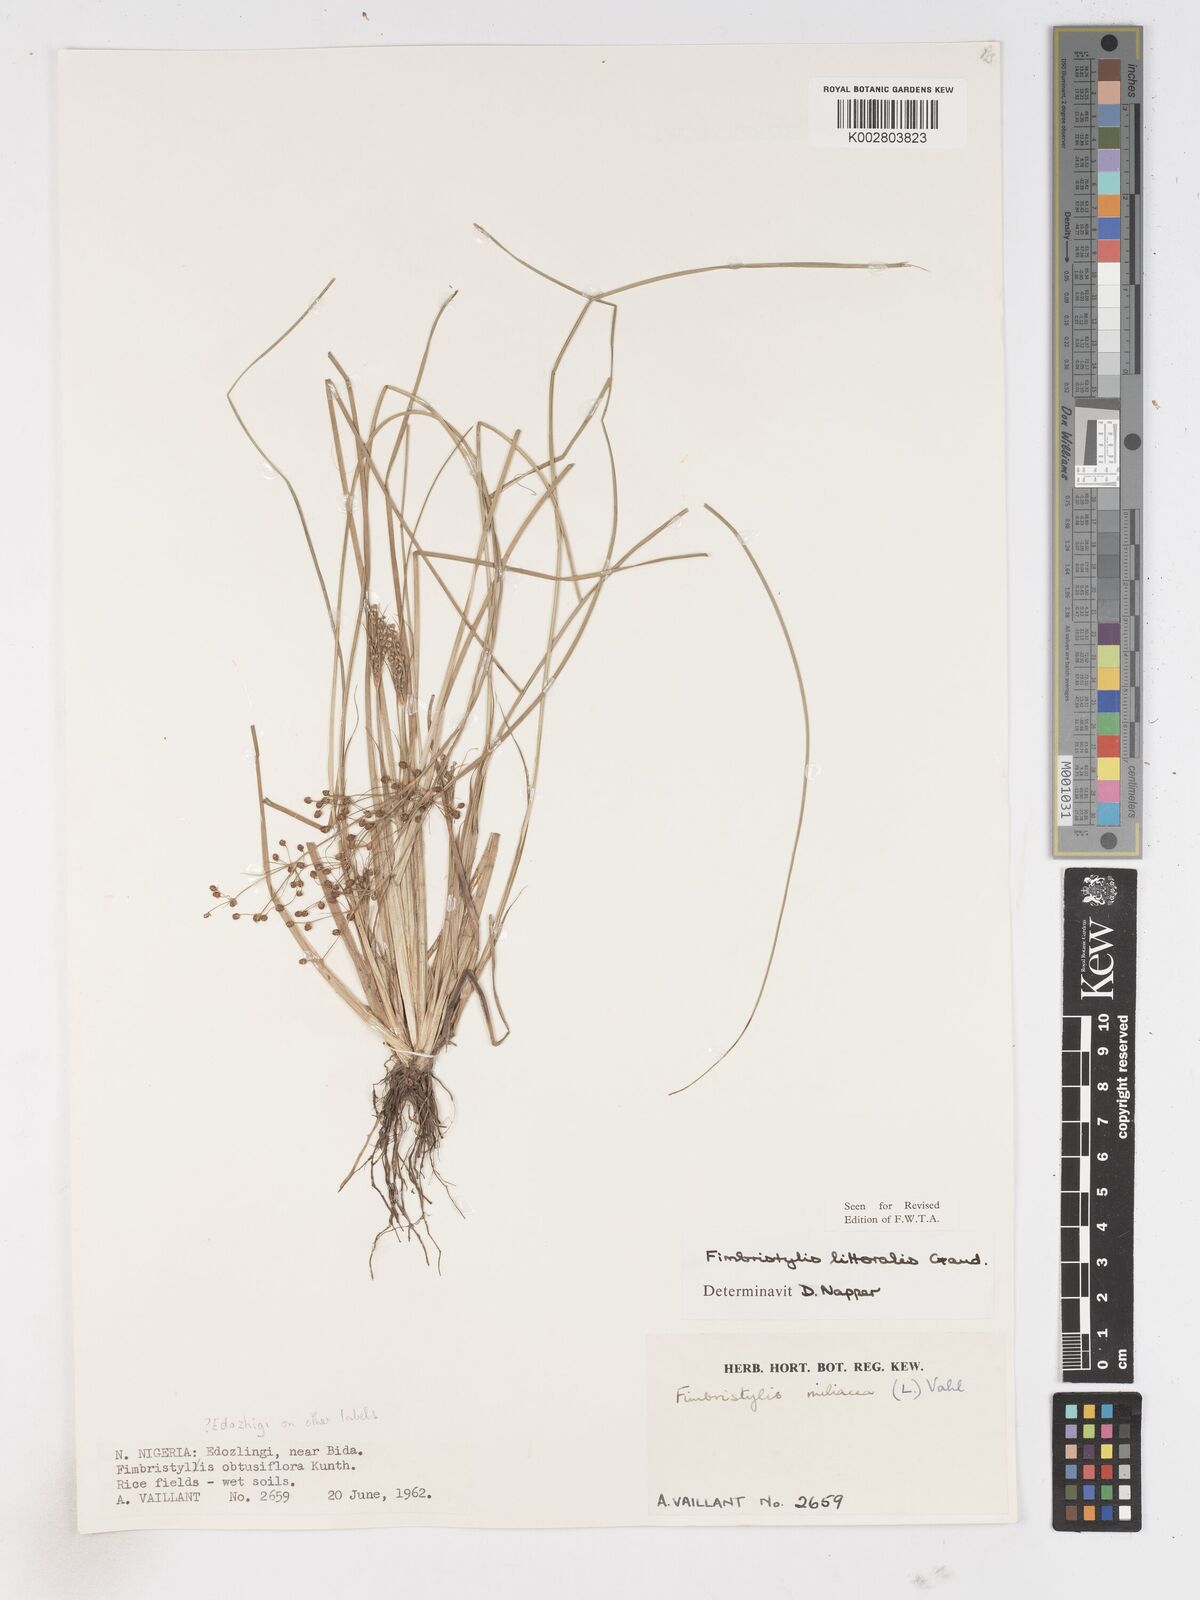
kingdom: Plantae
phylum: Tracheophyta
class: Liliopsida
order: Poales
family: Cyperaceae
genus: Fimbristylis
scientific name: Fimbristylis littoralis
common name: Fimbry
